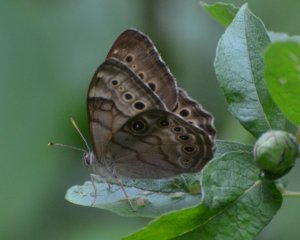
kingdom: Animalia
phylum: Arthropoda
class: Insecta
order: Lepidoptera
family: Nymphalidae
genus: Lethe
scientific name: Lethe anthedon
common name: Northern Pearly-Eye
